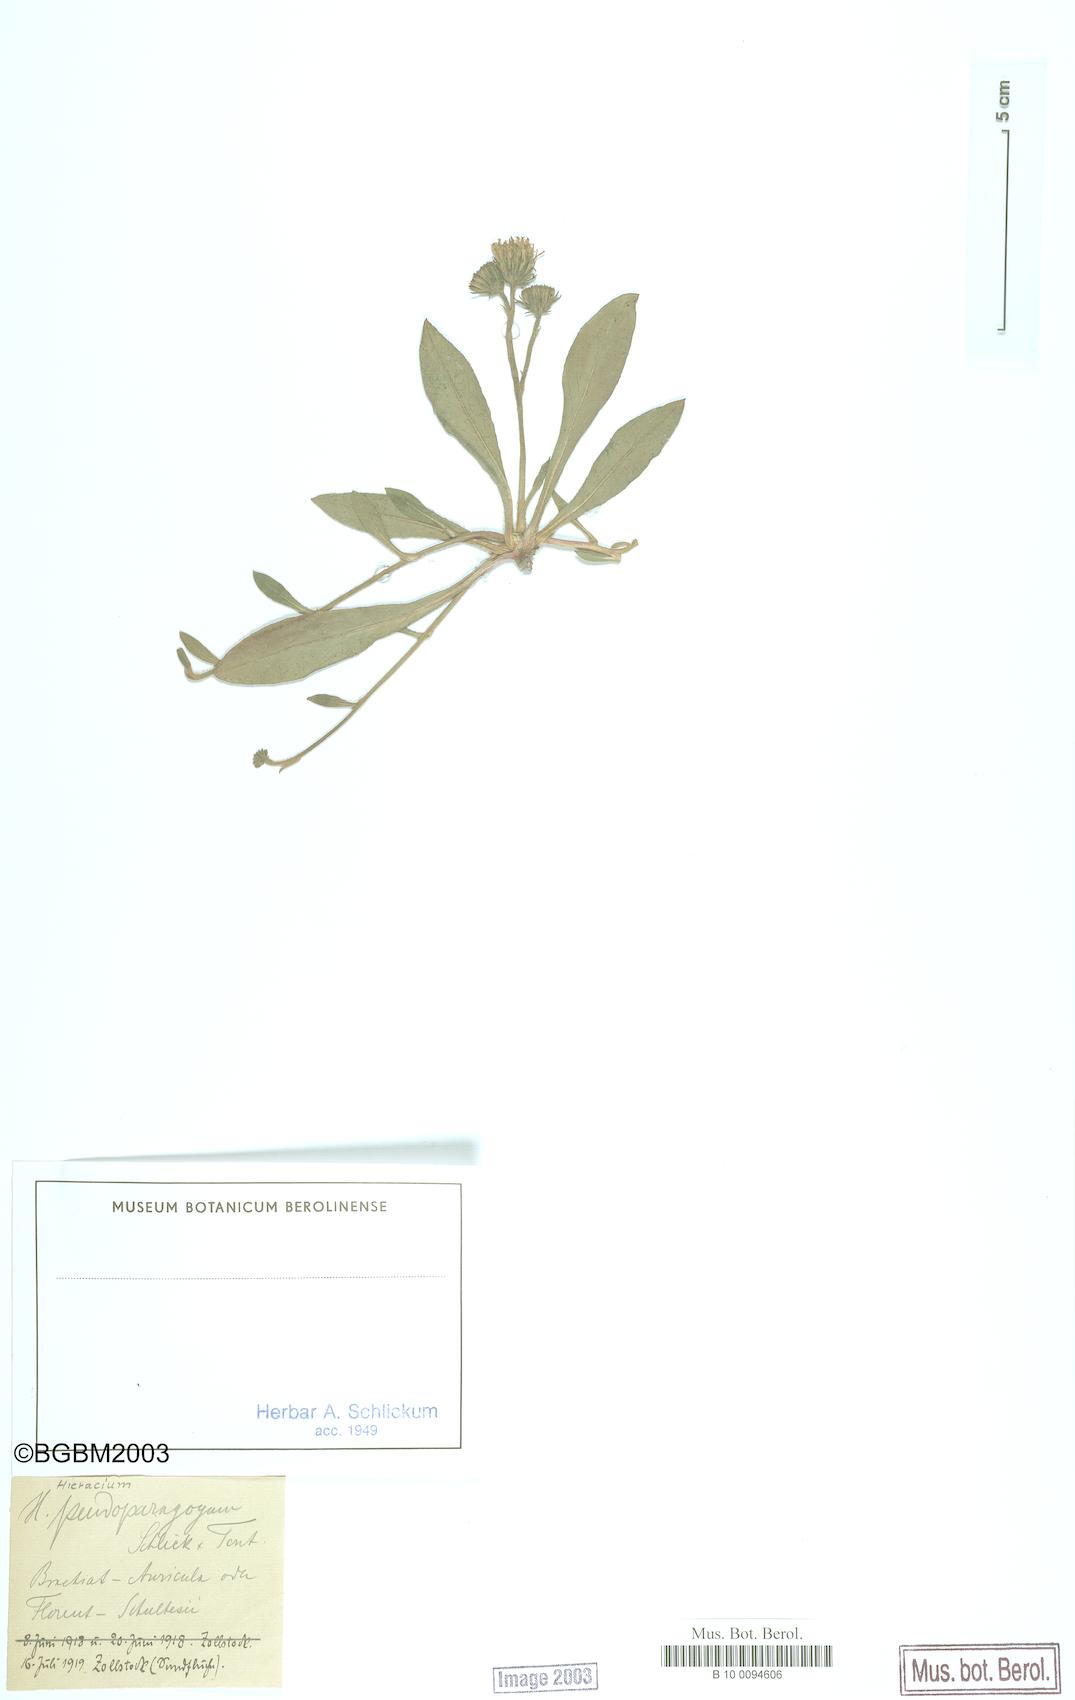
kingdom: Plantae
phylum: Tracheophyta
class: Magnoliopsida
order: Asterales
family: Asteraceae
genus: Pilosella
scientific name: Pilosella pseudoparagoga
